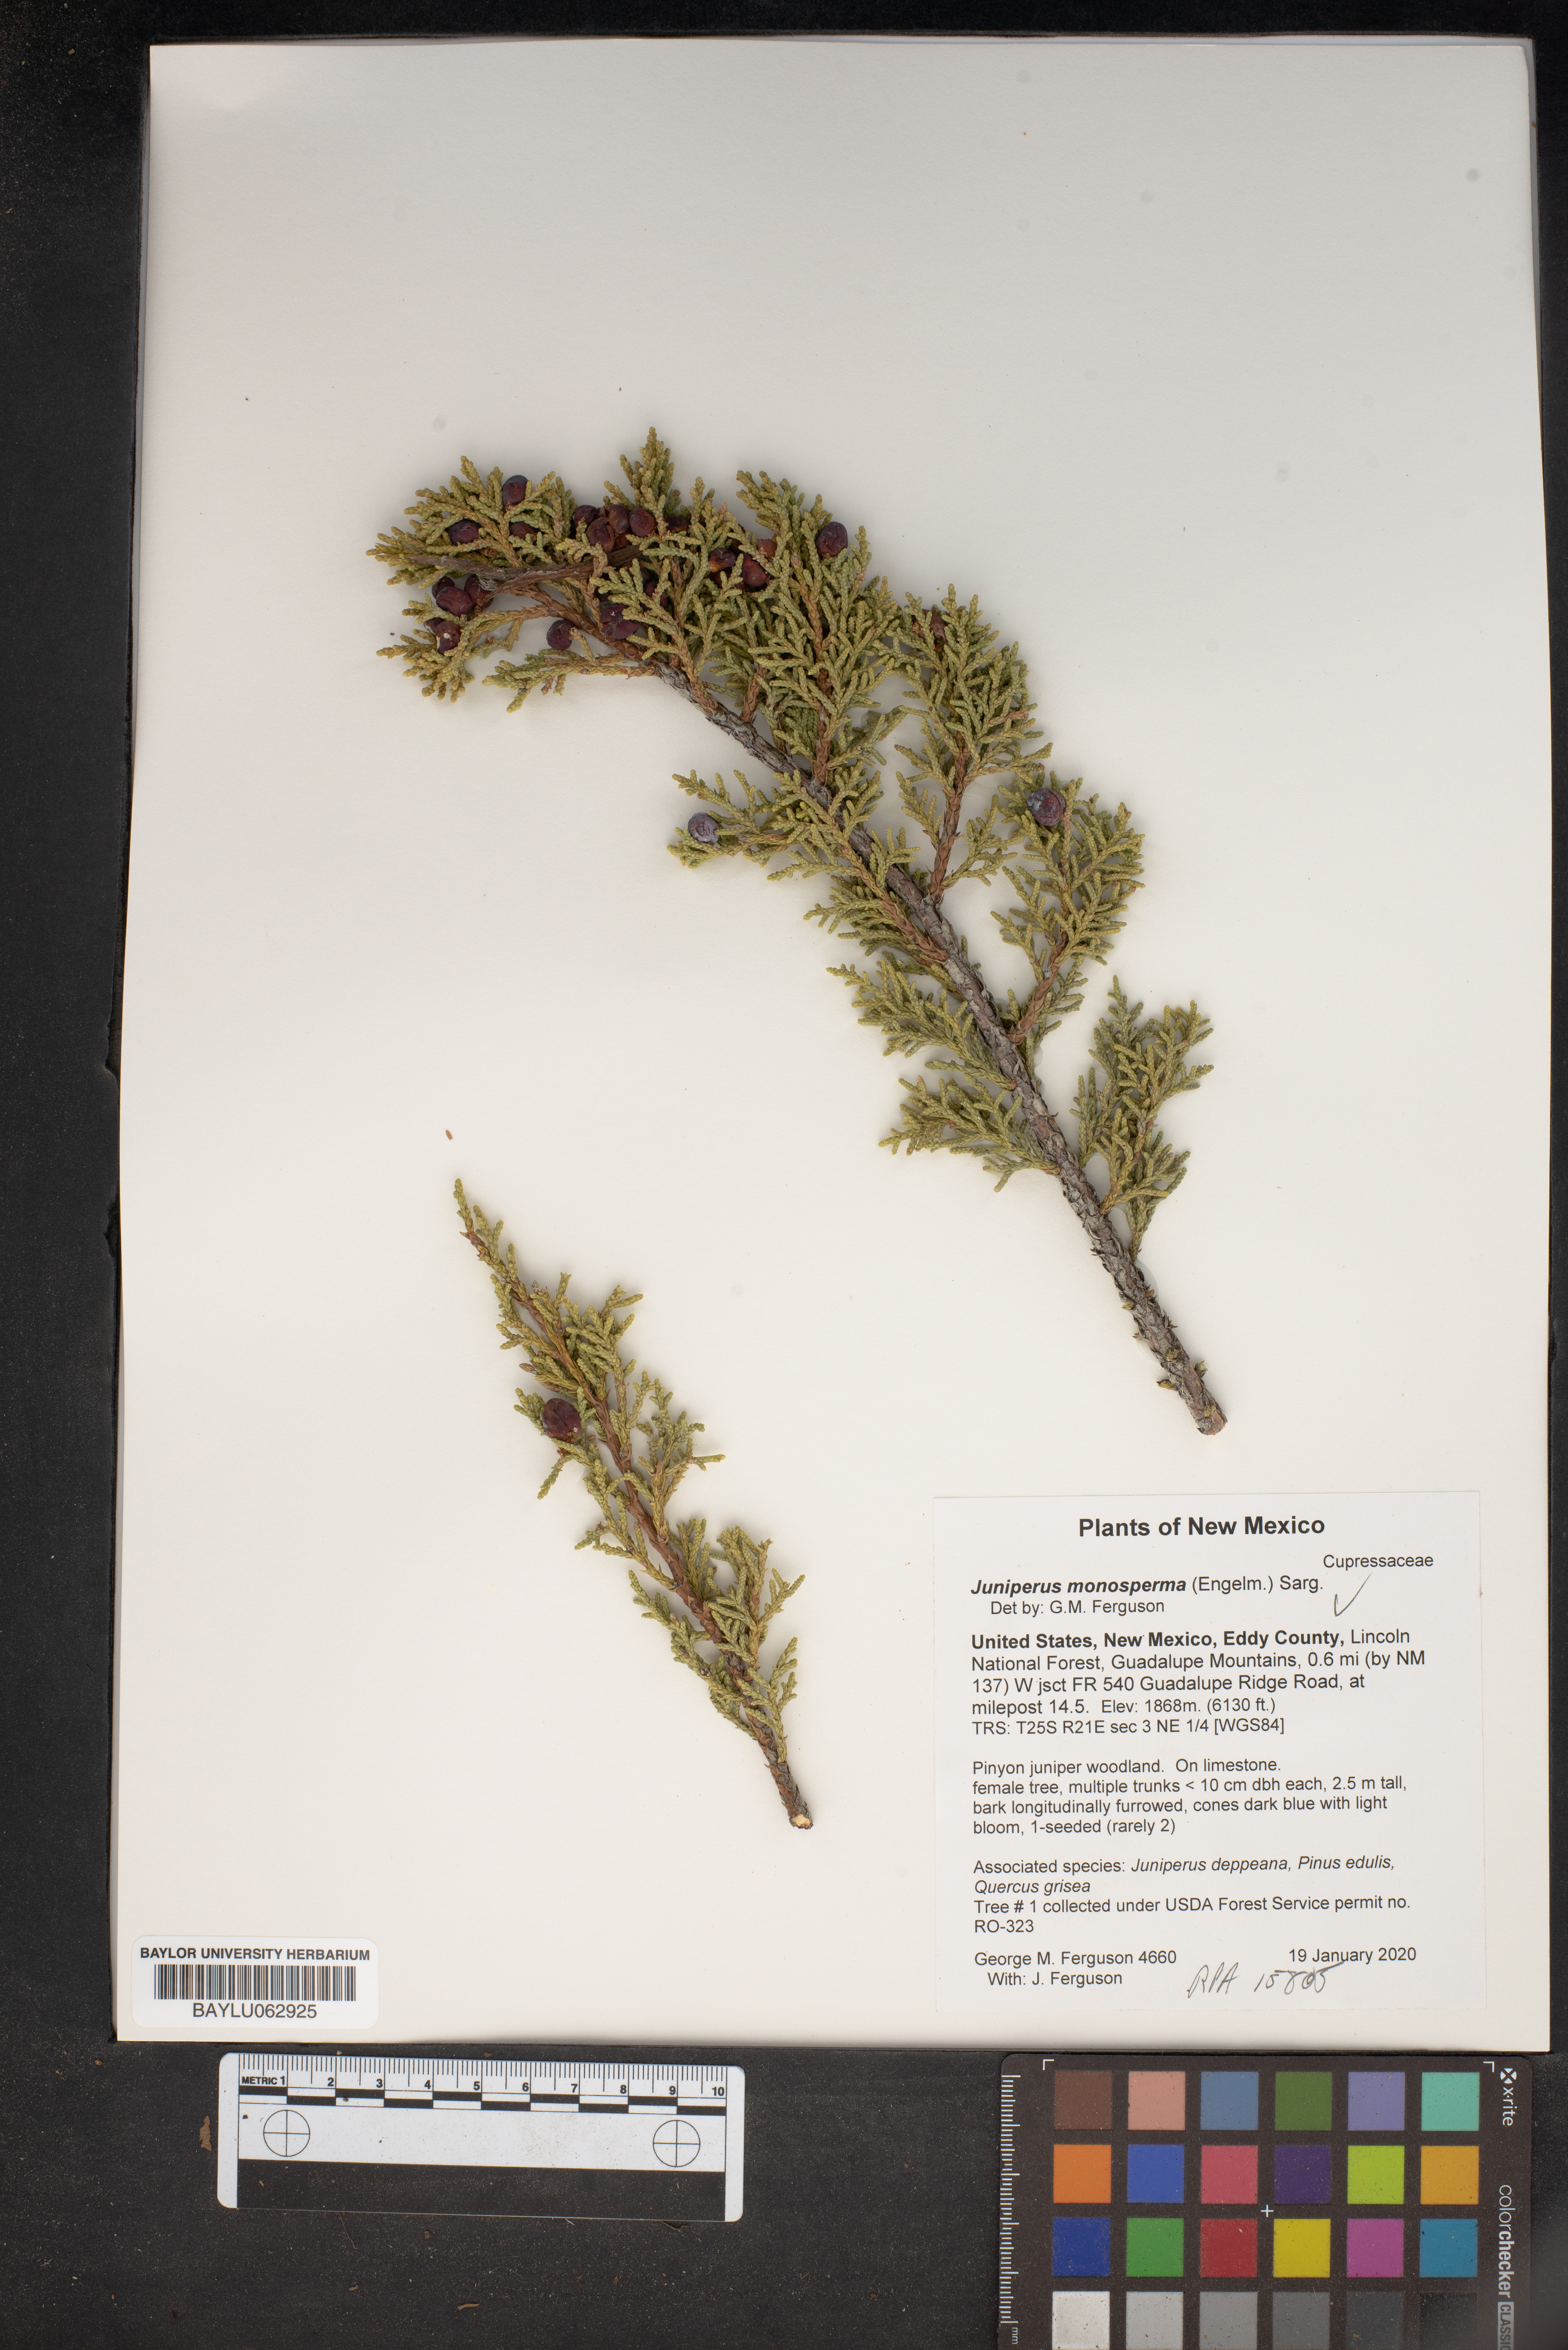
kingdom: Plantae
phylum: Tracheophyta
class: Pinopsida
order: Pinales
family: Cupressaceae
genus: Juniperus
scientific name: Juniperus monosperma
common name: One-seed juniper
